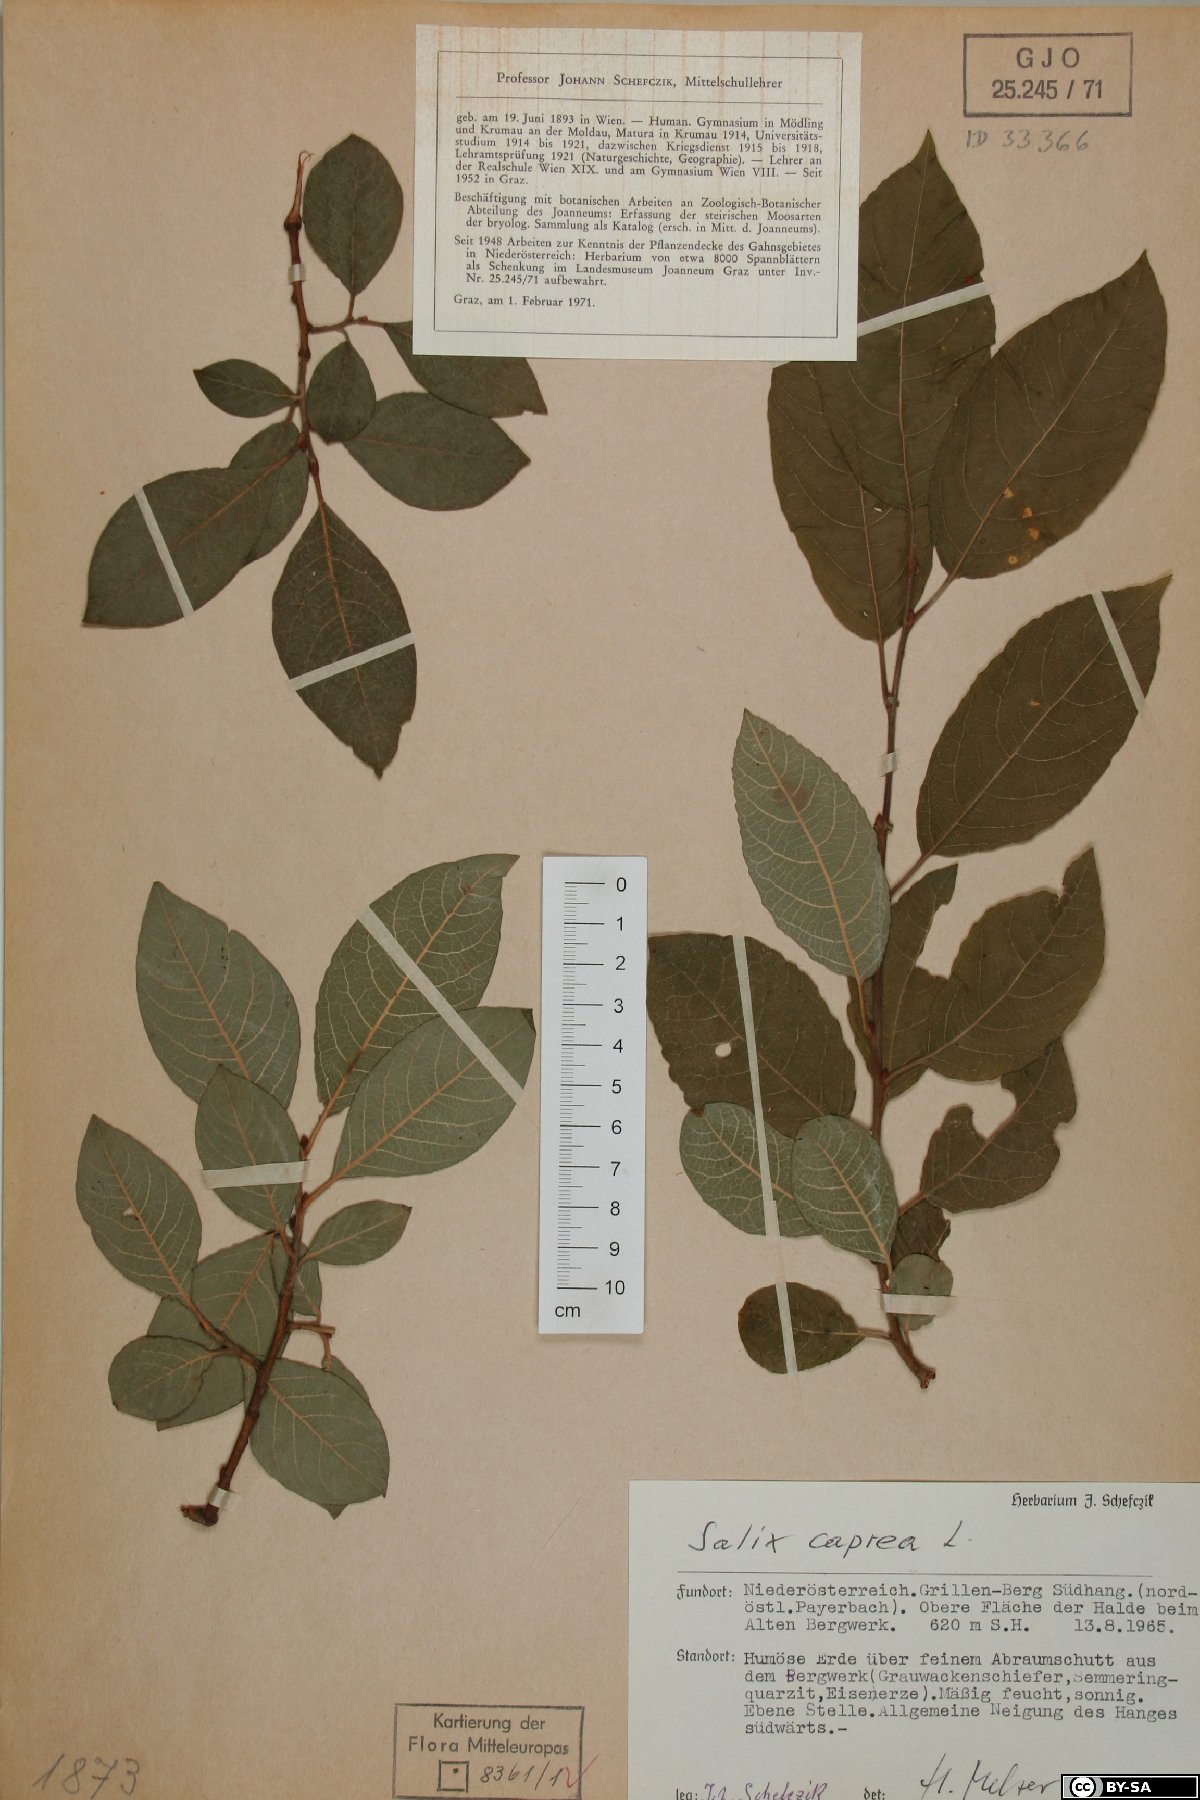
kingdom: Plantae
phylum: Tracheophyta
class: Magnoliopsida
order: Malpighiales
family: Salicaceae
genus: Salix
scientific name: Salix caprea
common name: Goat willow
